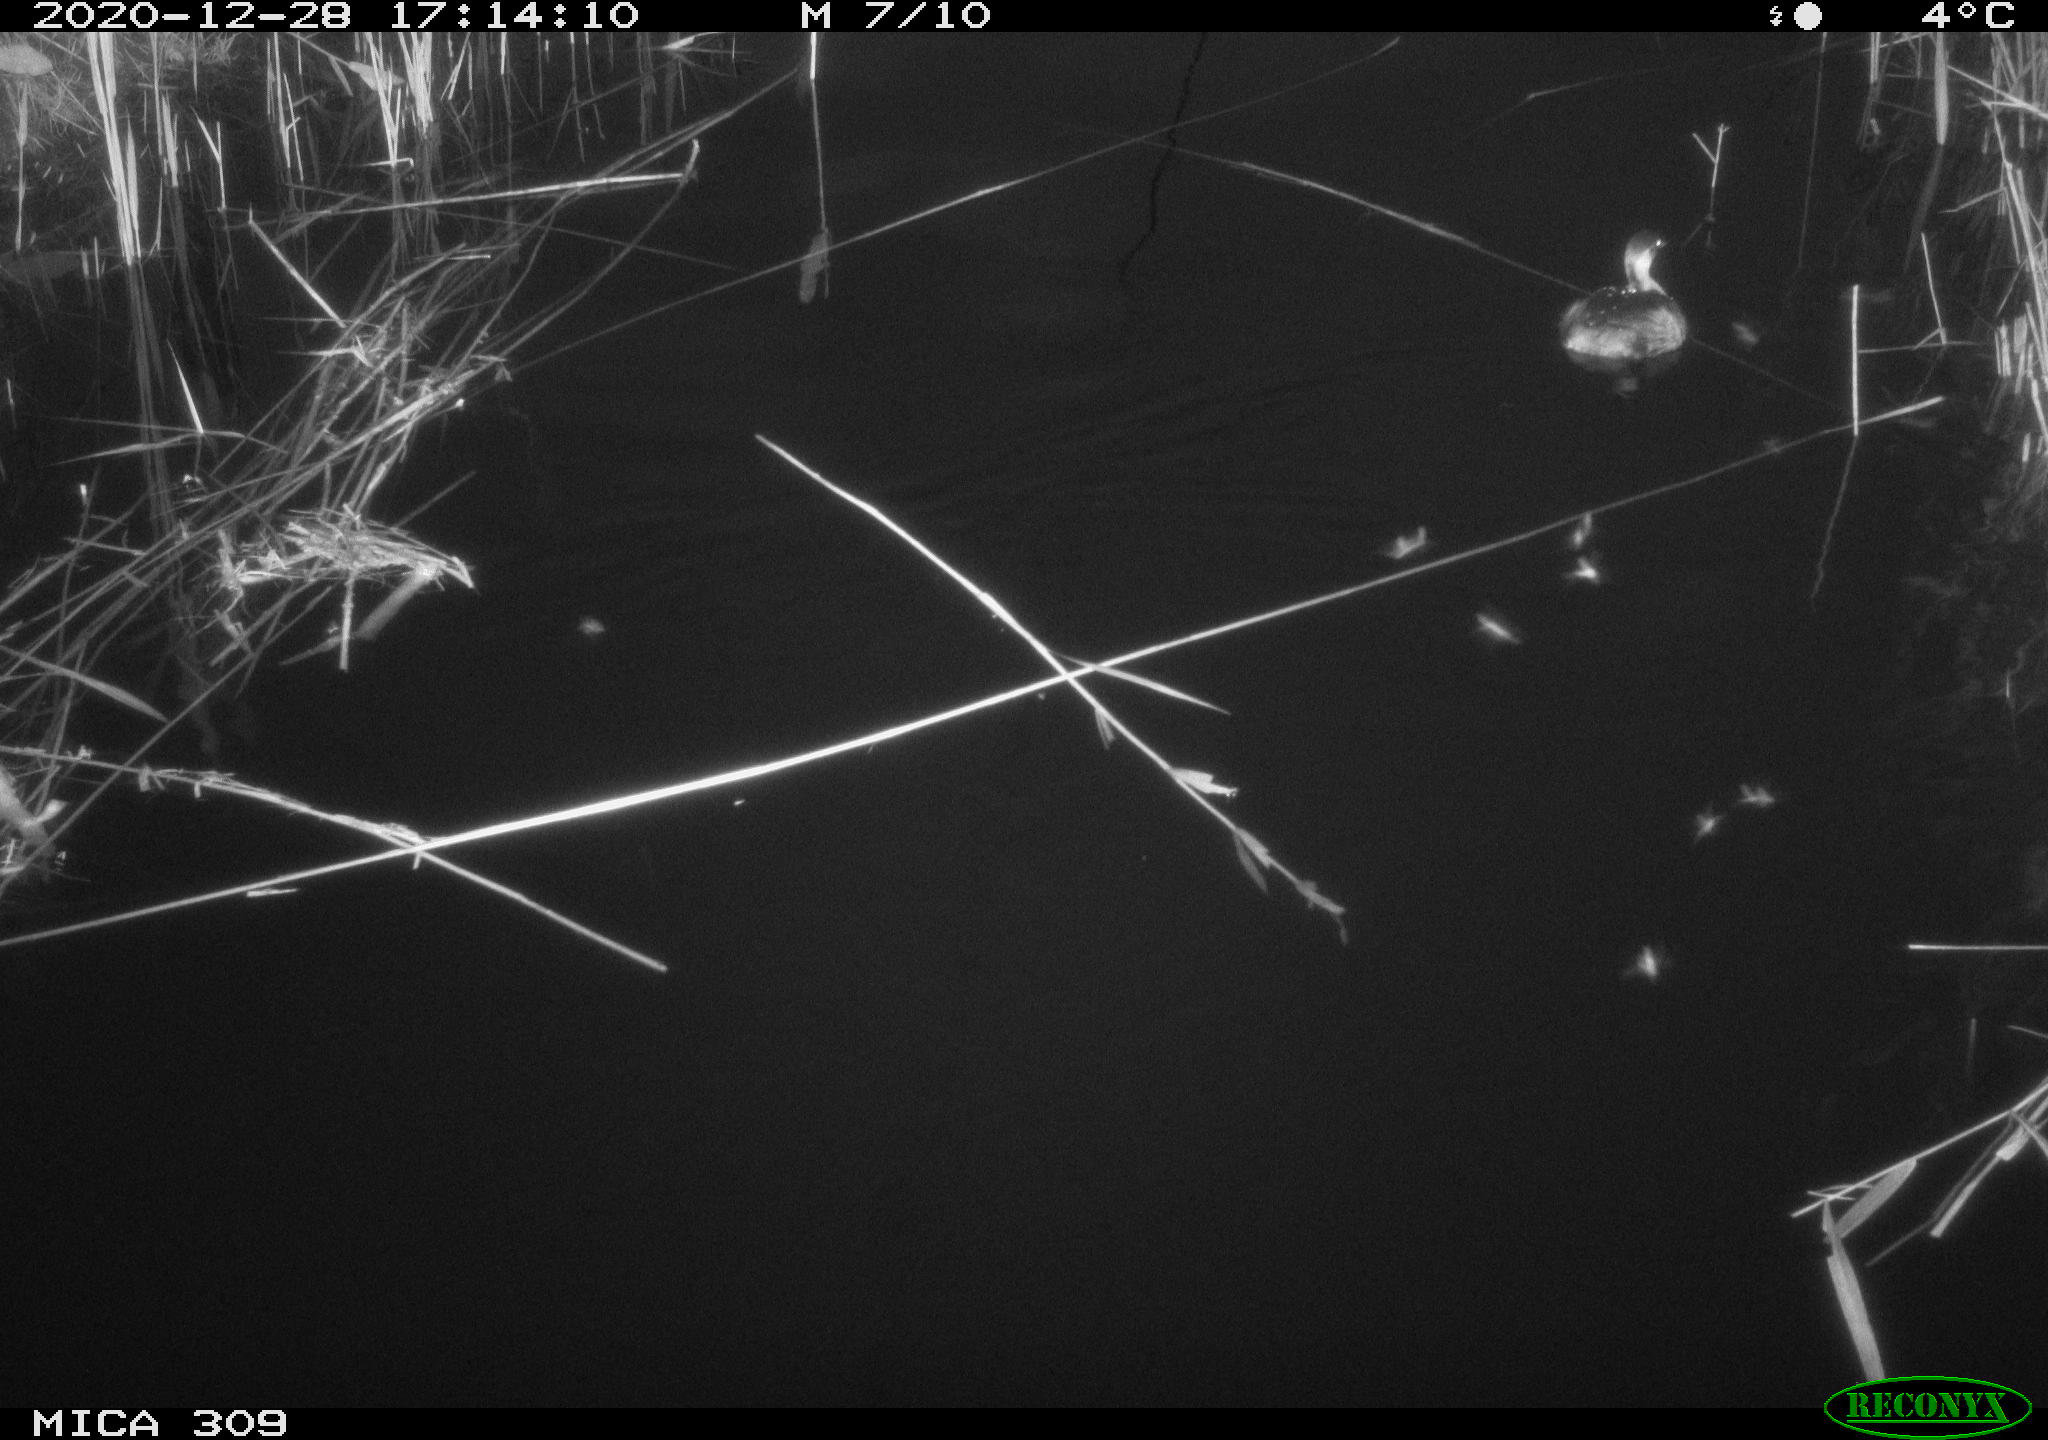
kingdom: Animalia
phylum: Chordata
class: Aves
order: Podicipediformes
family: Podicipedidae
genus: Tachybaptus
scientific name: Tachybaptus ruficollis
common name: Little grebe
